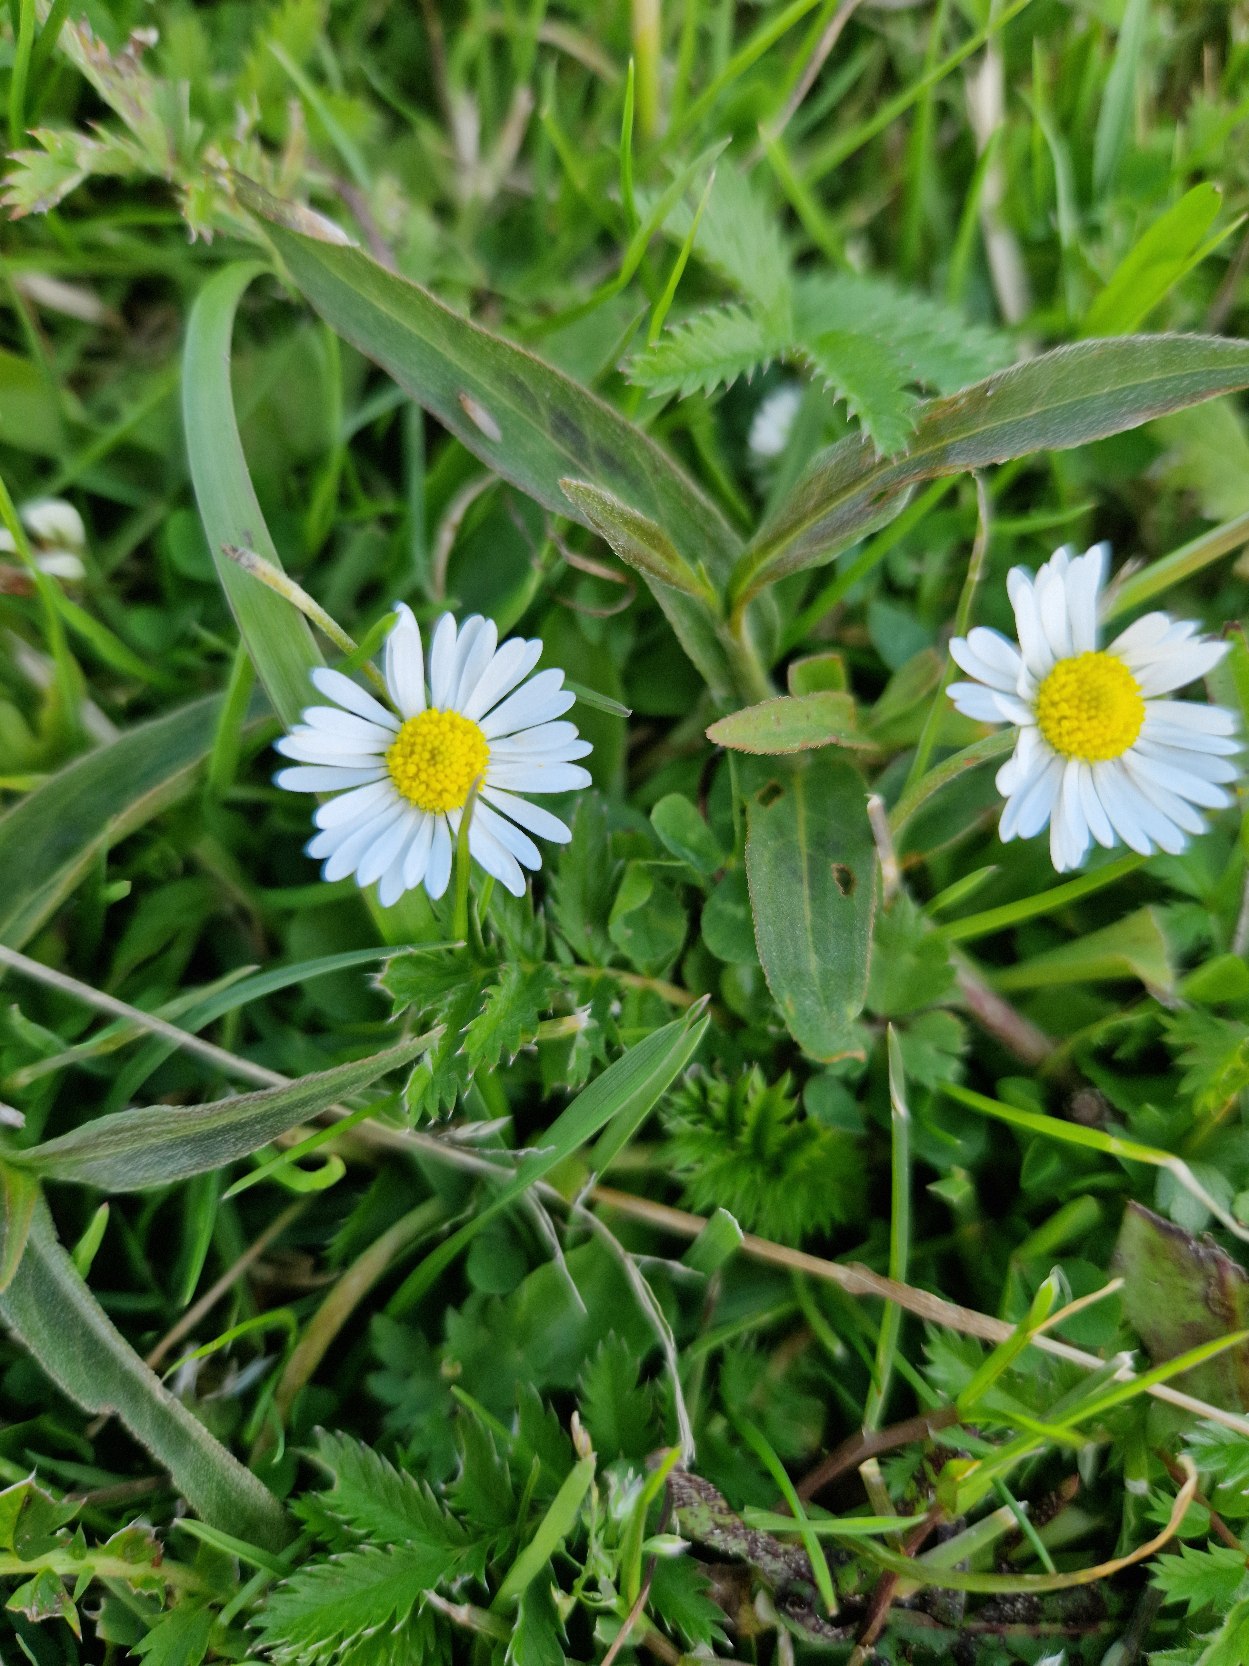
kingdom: Plantae
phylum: Tracheophyta
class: Magnoliopsida
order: Asterales
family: Asteraceae
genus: Bellis
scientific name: Bellis perennis
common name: Tusindfryd
